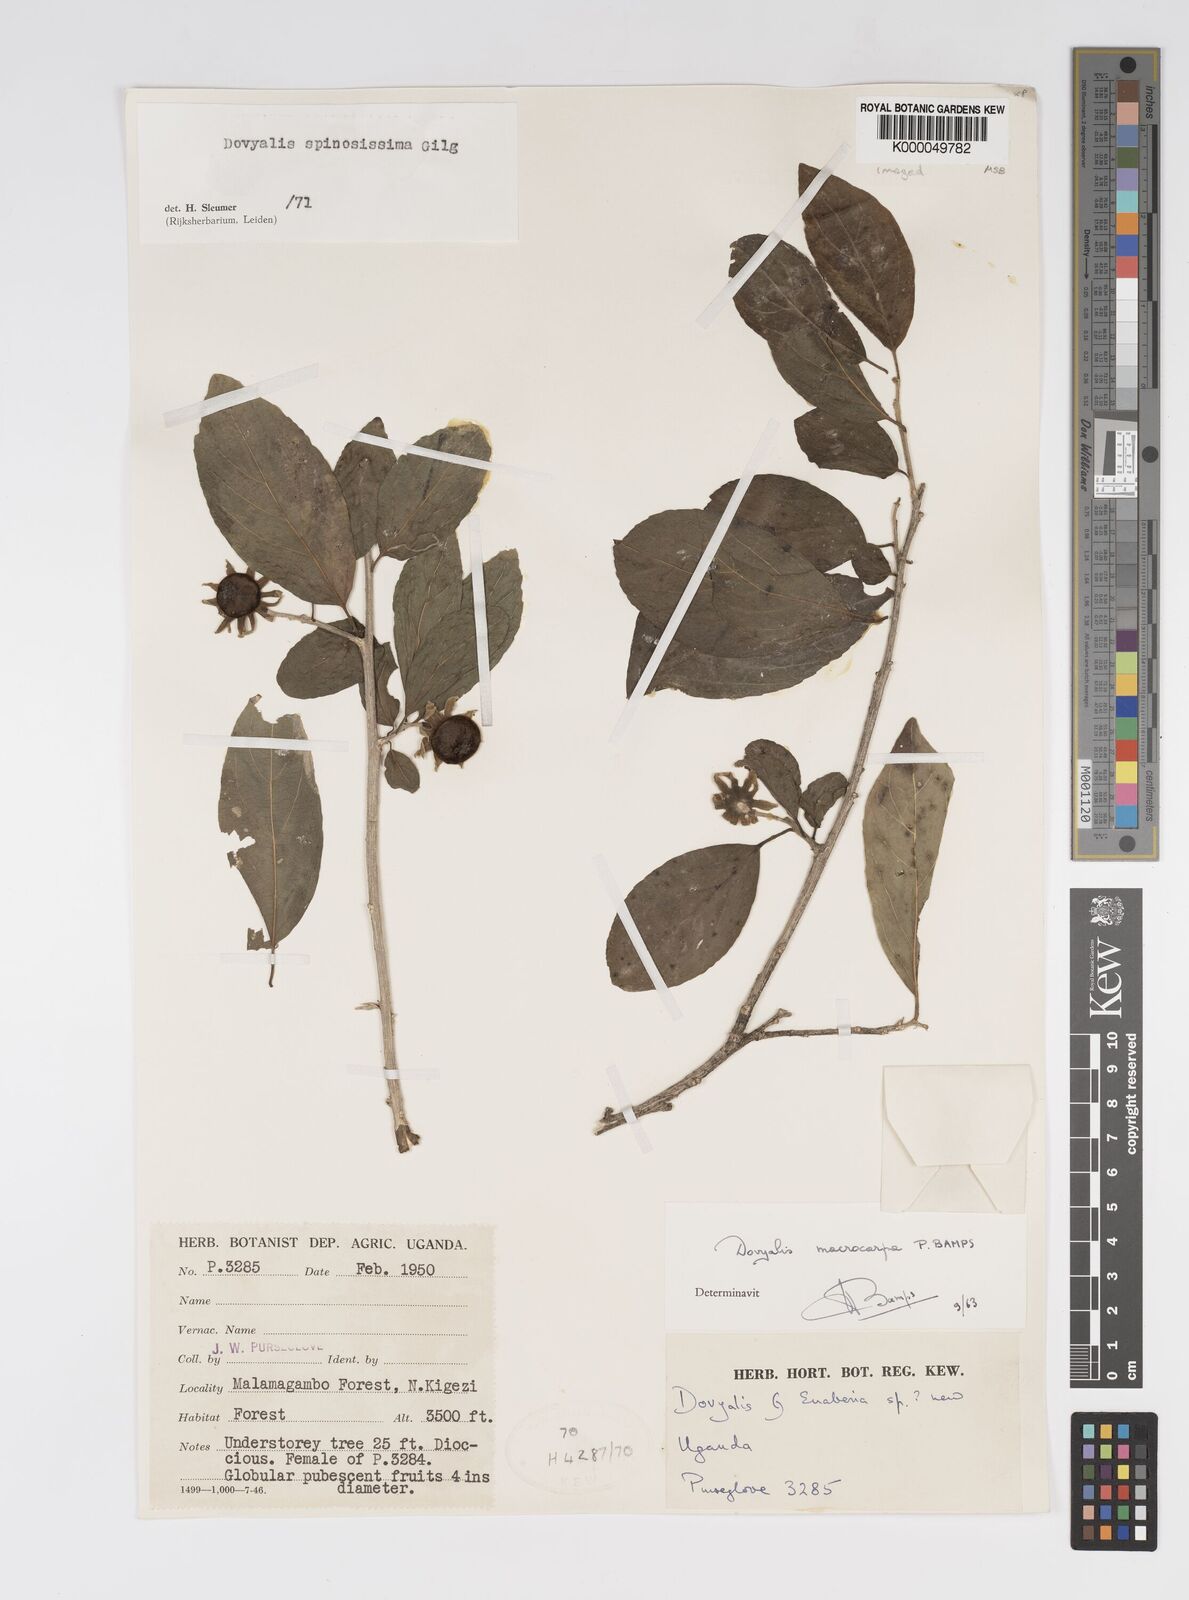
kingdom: Plantae
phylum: Tracheophyta
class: Magnoliopsida
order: Malpighiales
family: Salicaceae
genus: Dovyalis
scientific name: Dovyalis spinosissima
